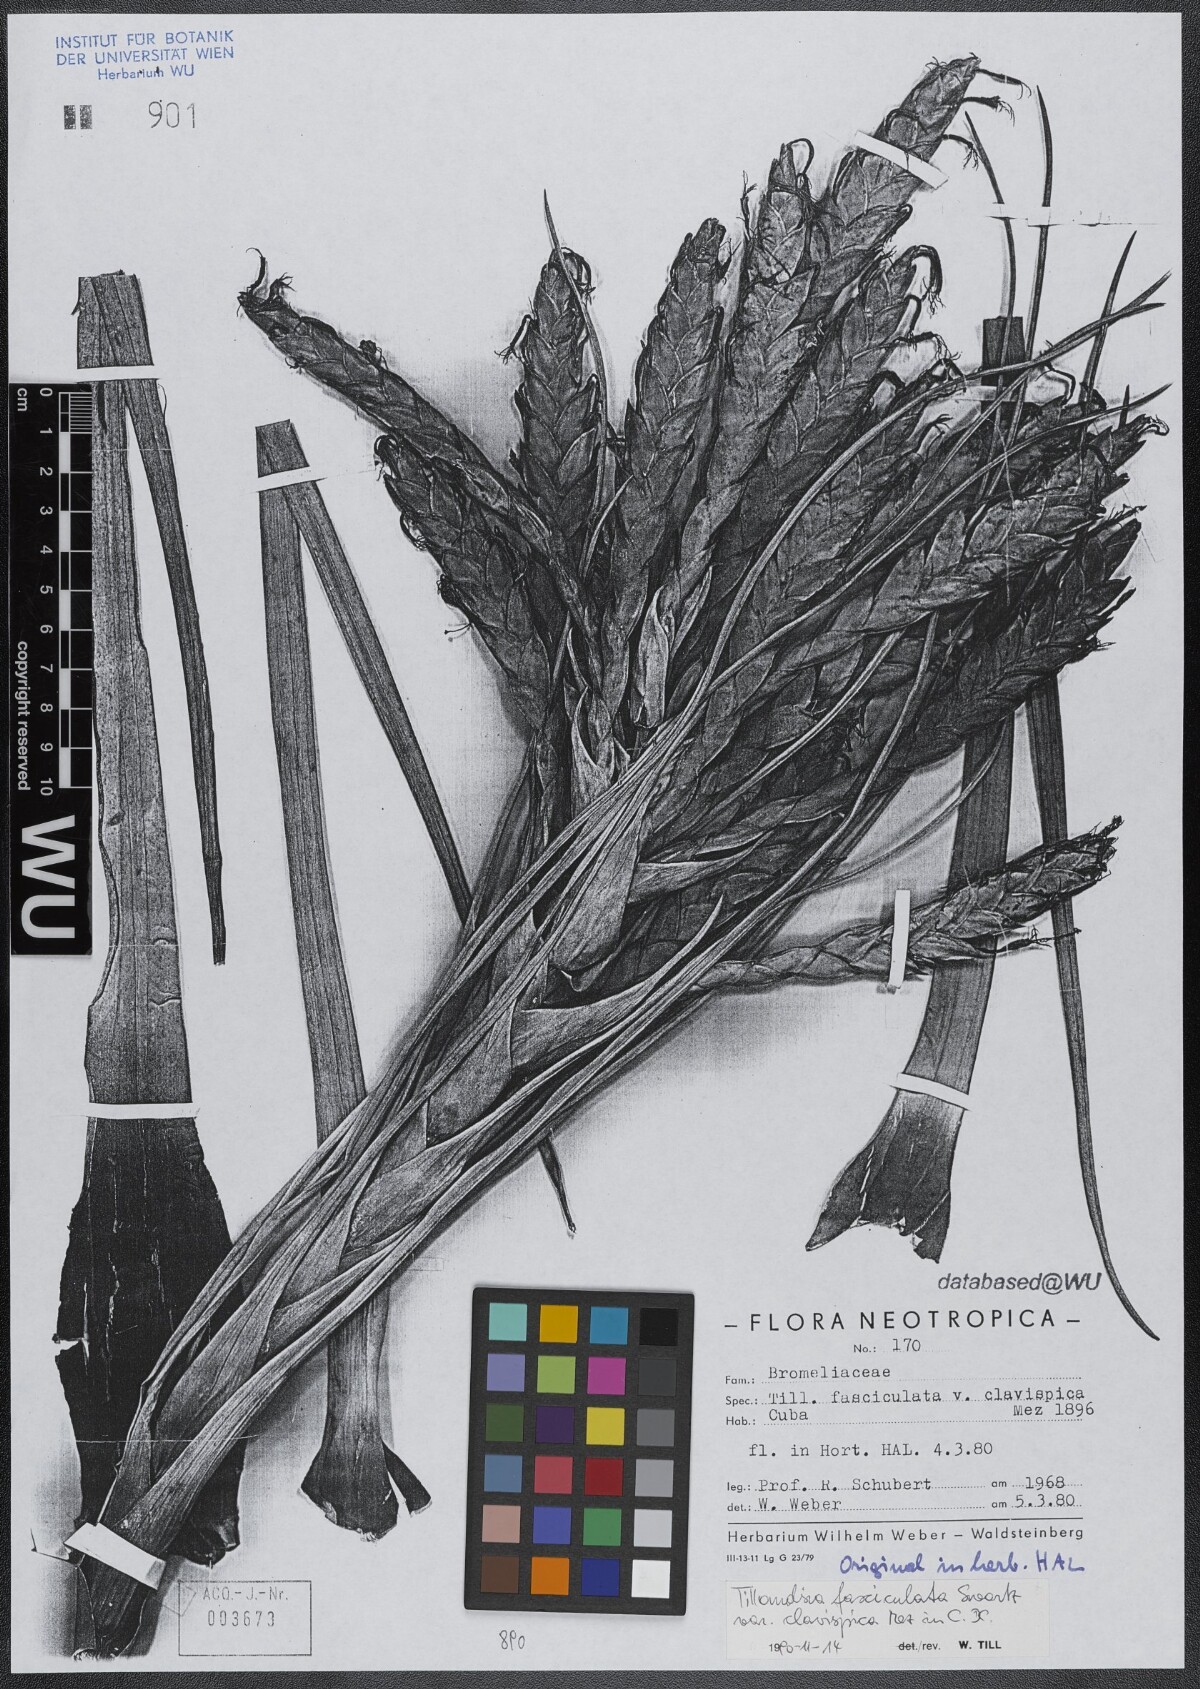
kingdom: Plantae
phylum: Tracheophyta
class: Liliopsida
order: Poales
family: Bromeliaceae
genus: Tillandsia
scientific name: Tillandsia fasciculata
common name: Giant airplant
